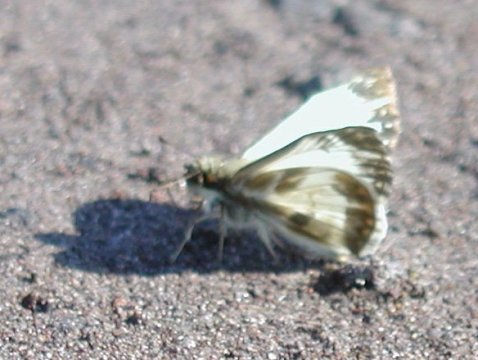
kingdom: Animalia
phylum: Arthropoda
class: Insecta
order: Lepidoptera
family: Hesperiidae
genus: Heliopetes
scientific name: Heliopetes macaira
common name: Turk's-cap White-Skipper
